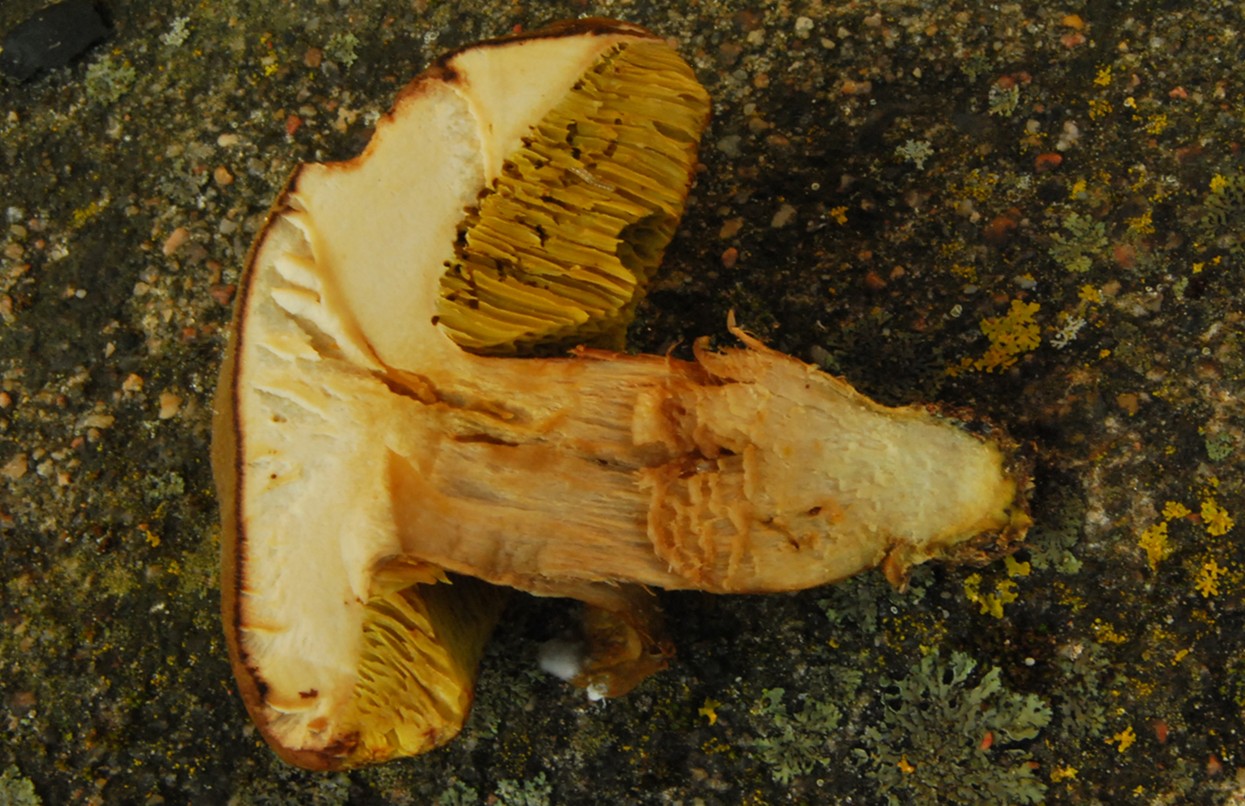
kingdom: Fungi
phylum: Basidiomycota
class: Agaricomycetes
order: Boletales
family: Boletaceae
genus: Xerocomus
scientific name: Xerocomus ferrugineus
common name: vaskeskinds-rørhat
